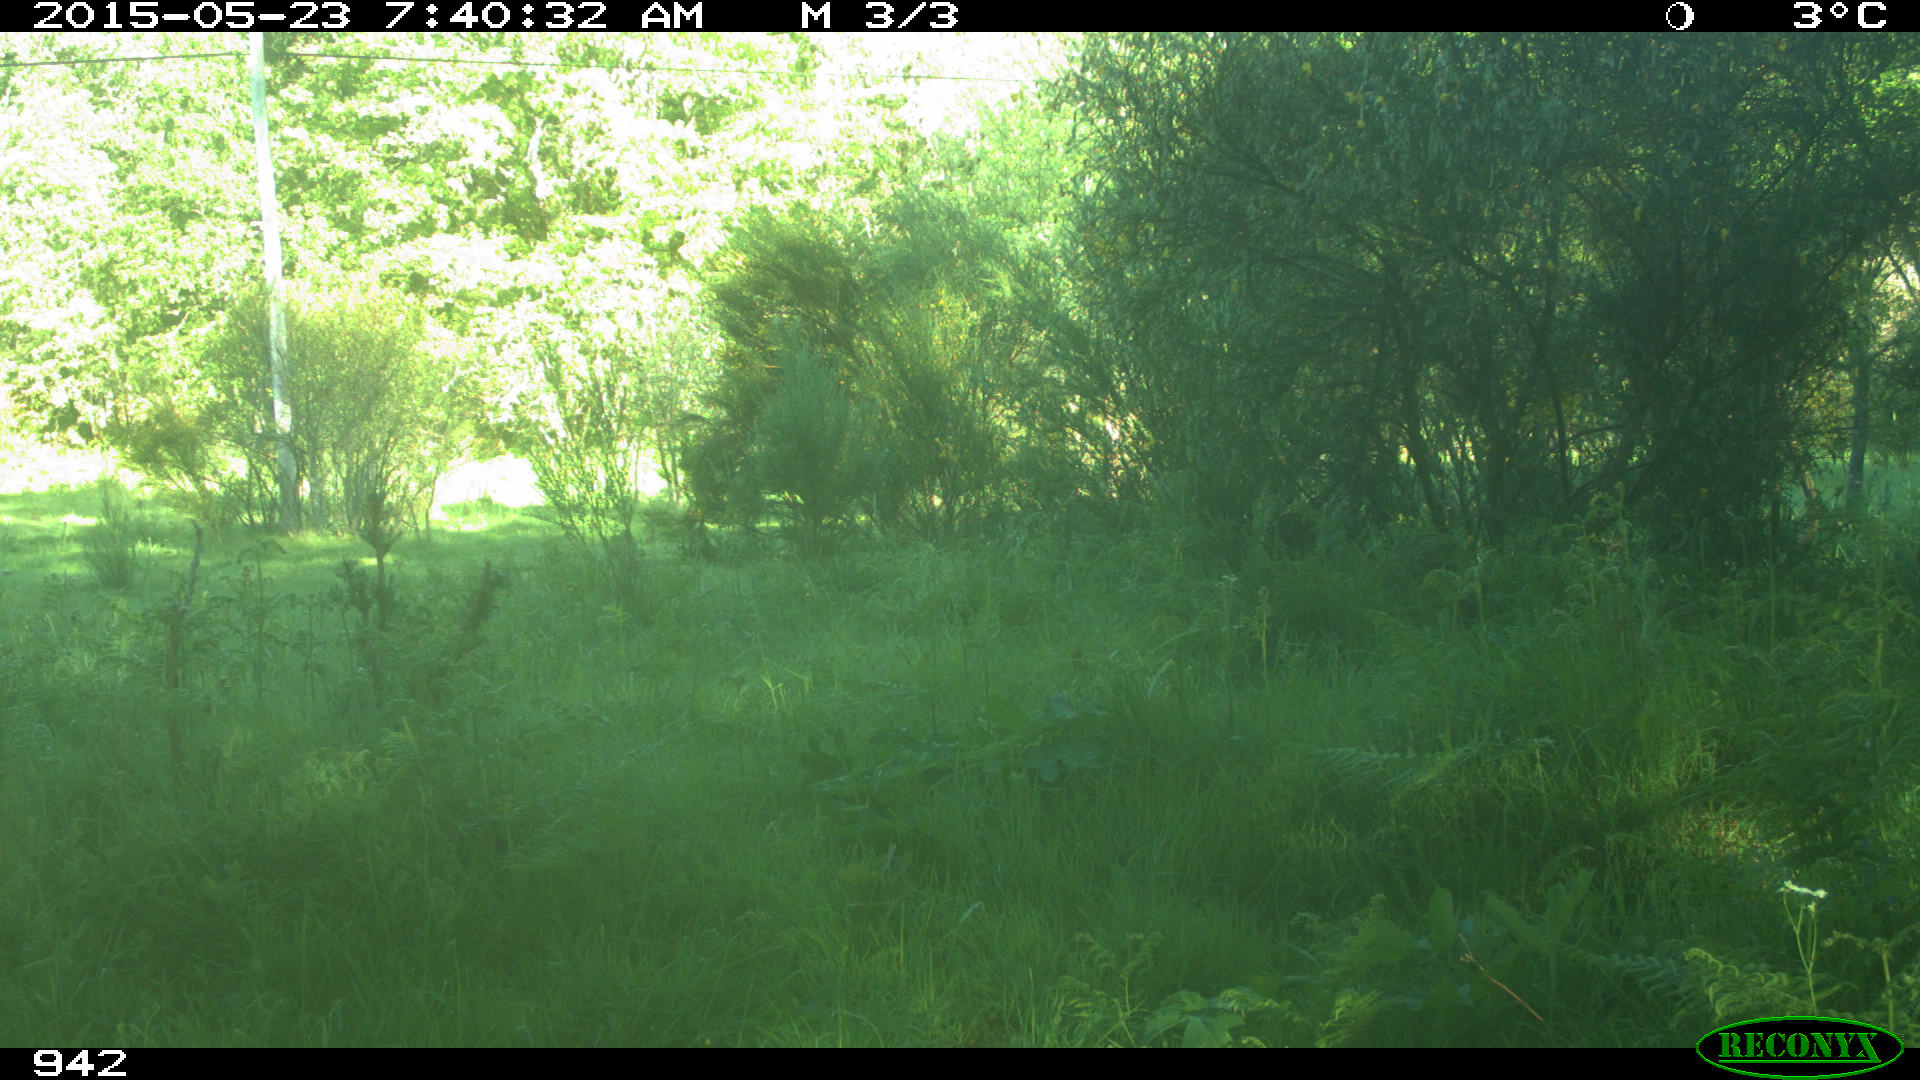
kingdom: Animalia
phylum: Chordata
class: Mammalia
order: Artiodactyla
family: Bovidae
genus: Bos
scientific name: Bos taurus
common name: Domesticated cattle
